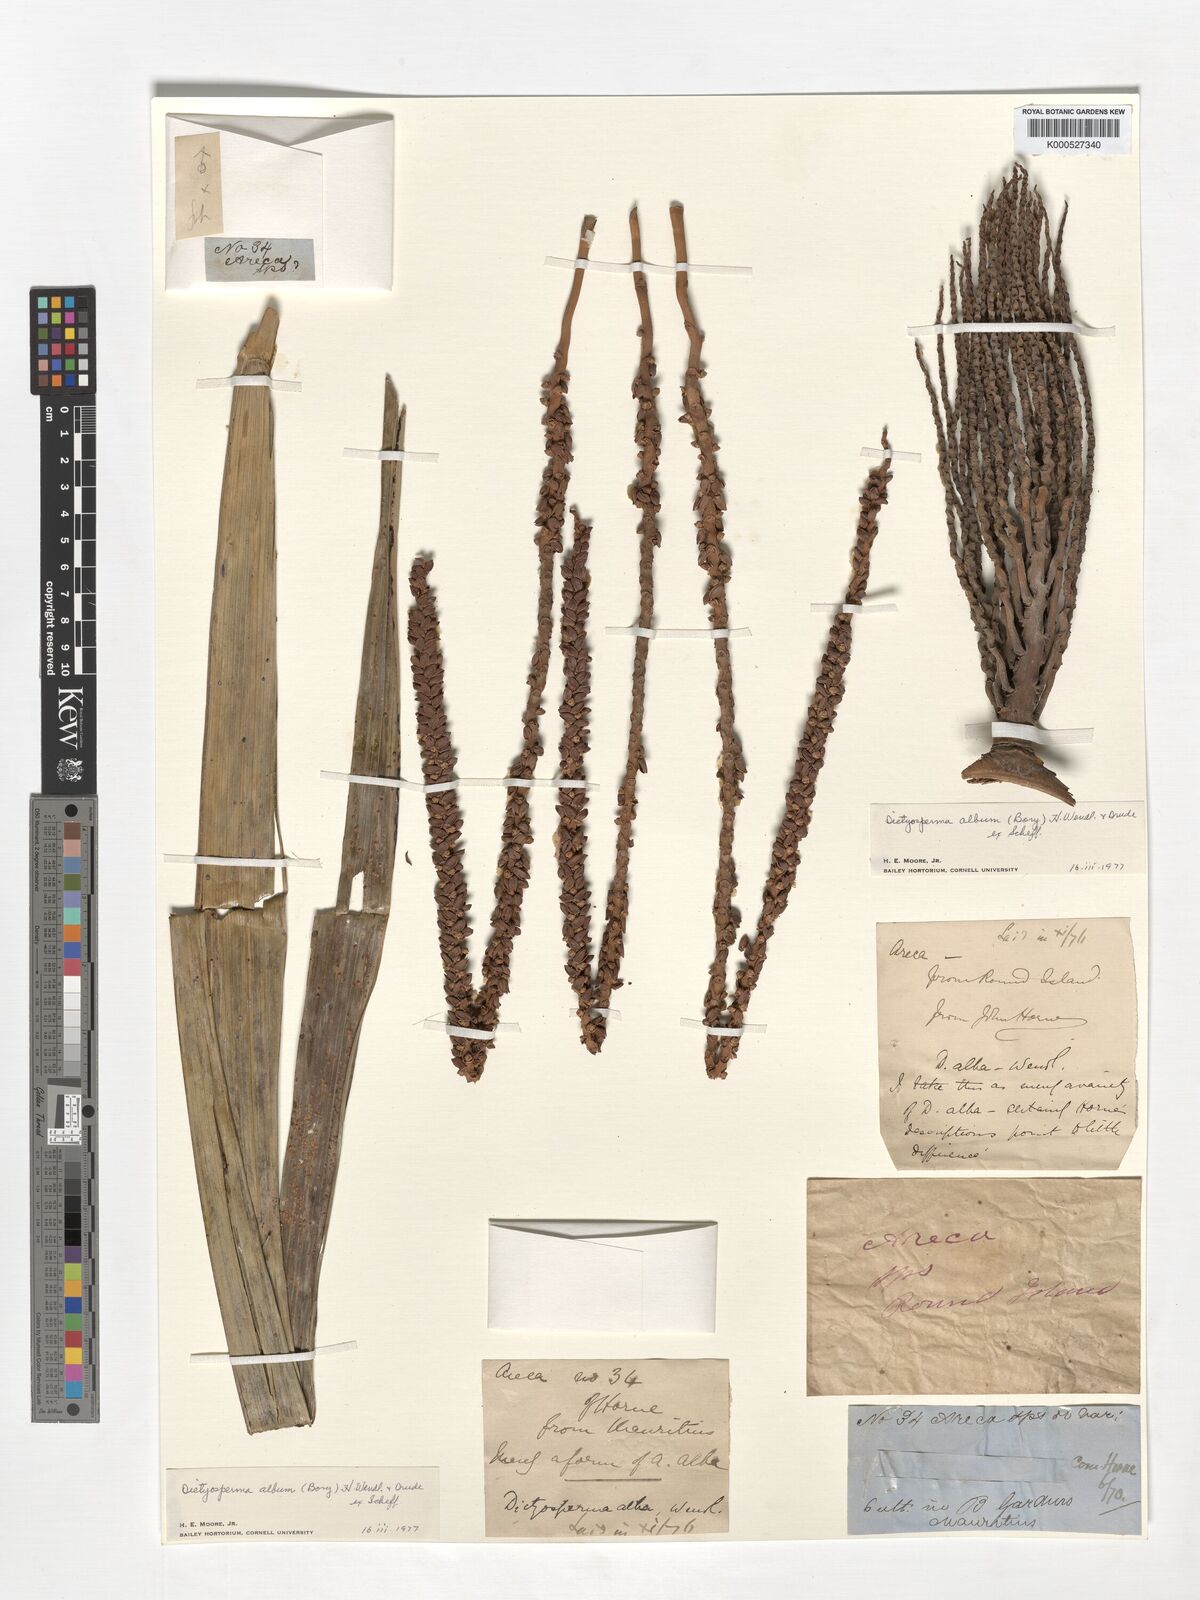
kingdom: Plantae
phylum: Tracheophyta
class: Liliopsida
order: Arecales
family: Arecaceae
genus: Dictyosperma
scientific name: Dictyosperma album
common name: Common princess palm
